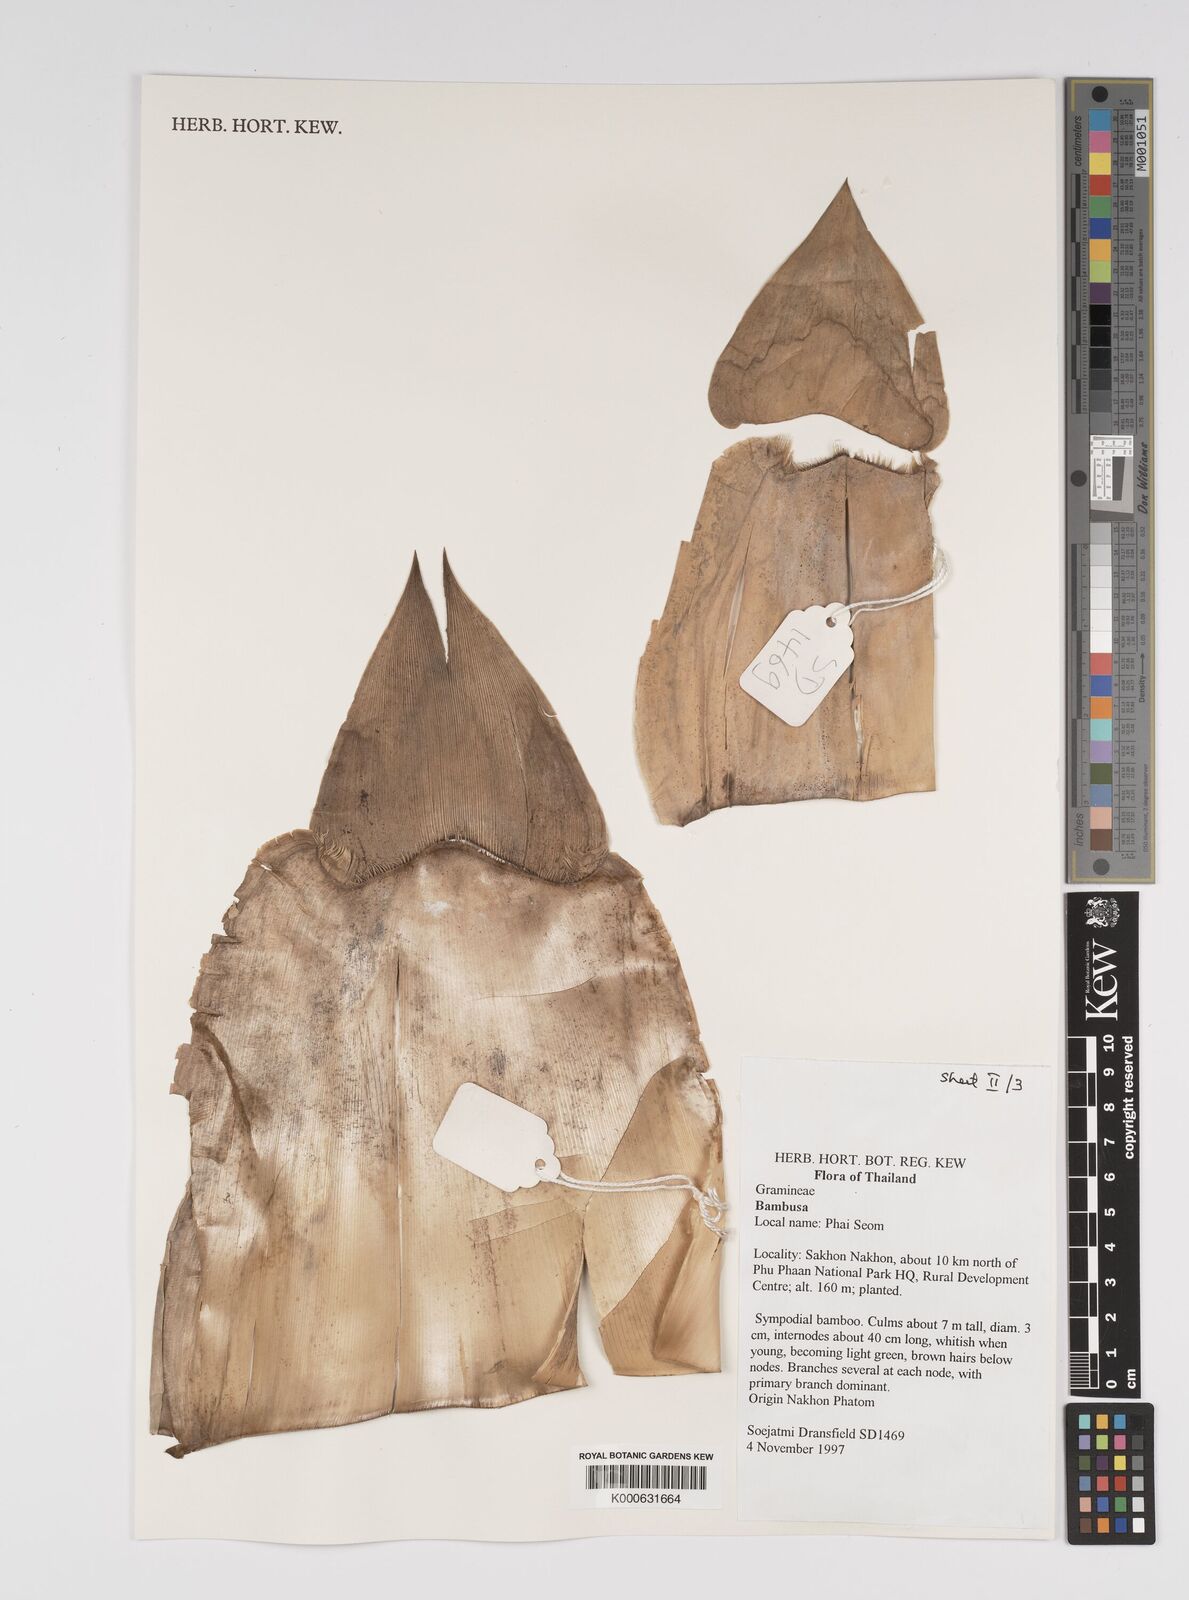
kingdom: Plantae
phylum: Tracheophyta
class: Liliopsida
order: Poales
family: Poaceae
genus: Bambusa
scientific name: Bambusa
